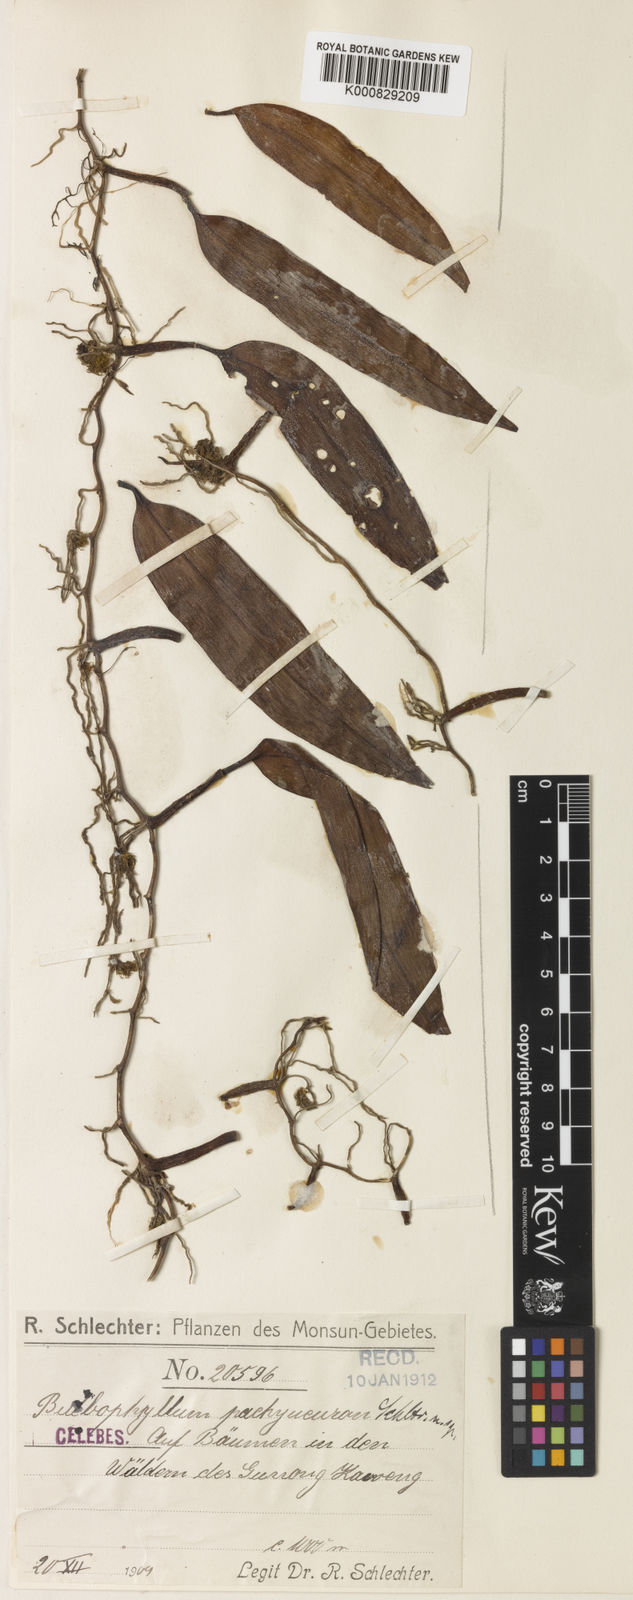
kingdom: Plantae
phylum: Tracheophyta
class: Liliopsida
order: Asparagales
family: Orchidaceae
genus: Bulbophyllum
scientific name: Bulbophyllum wrayi
